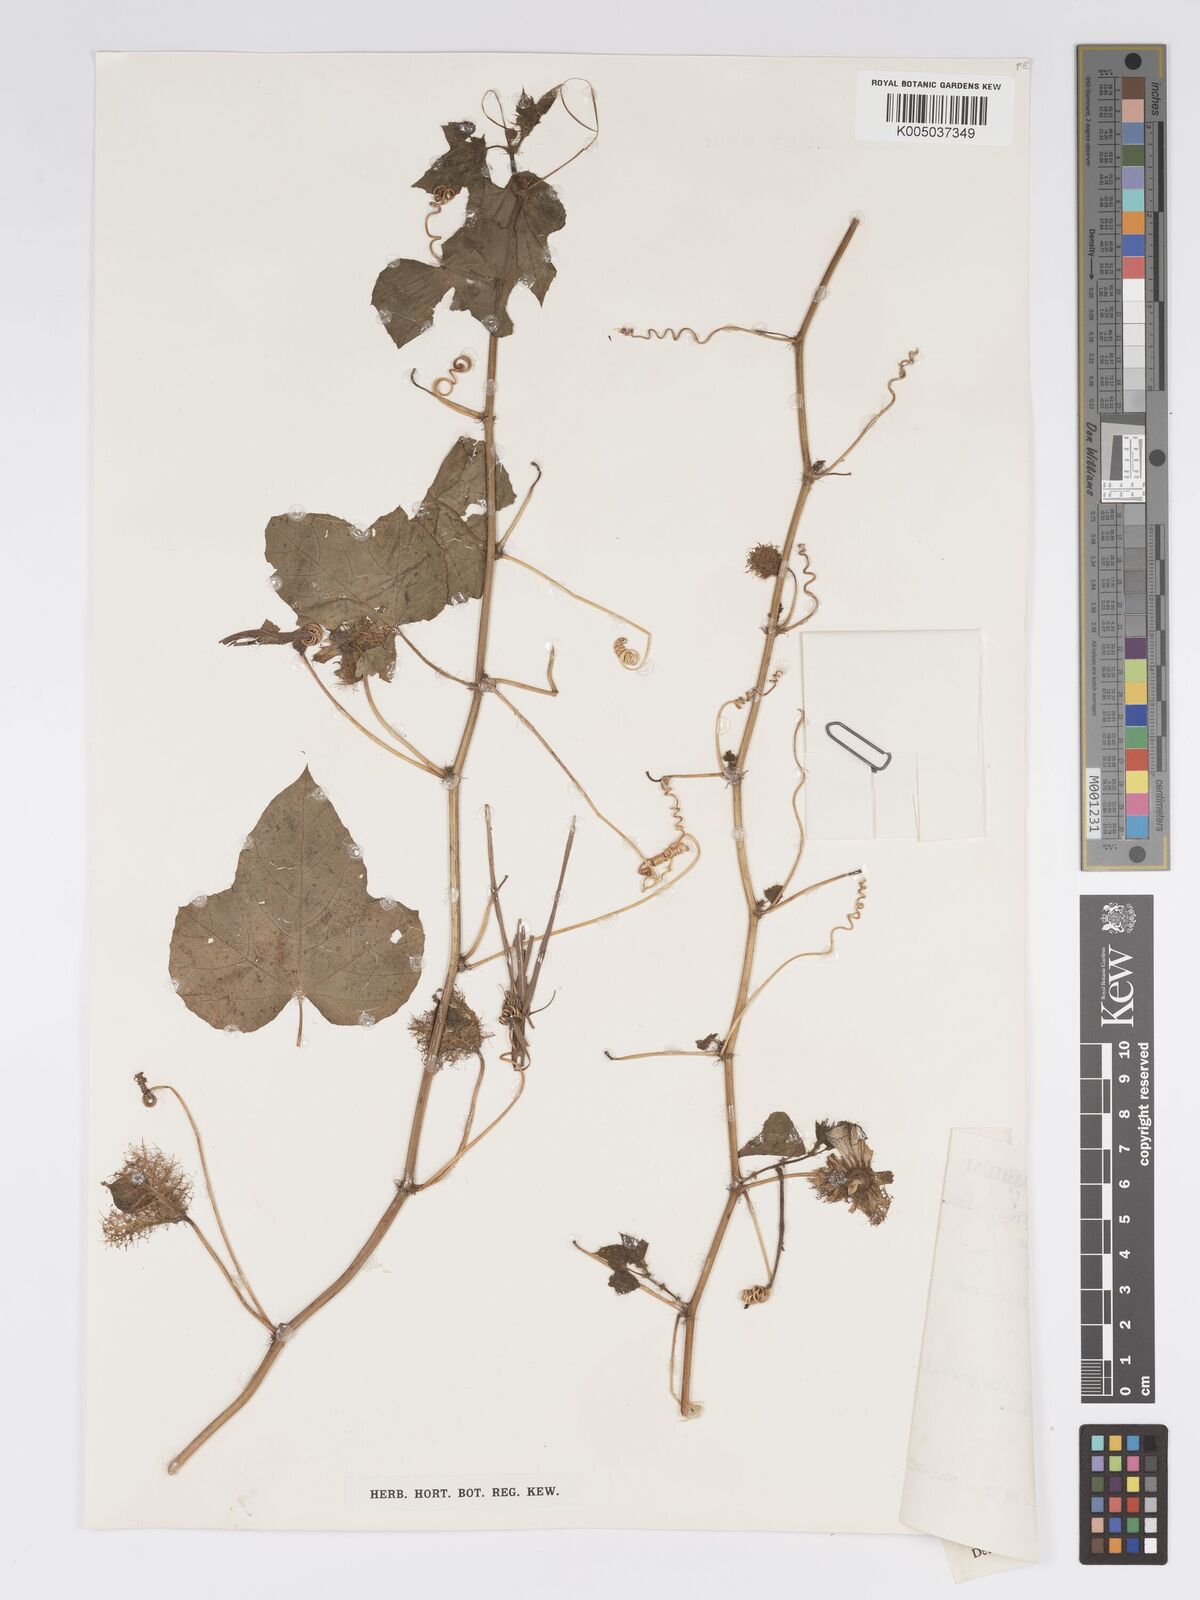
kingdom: Plantae
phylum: Tracheophyta
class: Magnoliopsida
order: Malpighiales
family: Passifloraceae
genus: Passiflora
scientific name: Passiflora foetida
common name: Fetid passionflower
